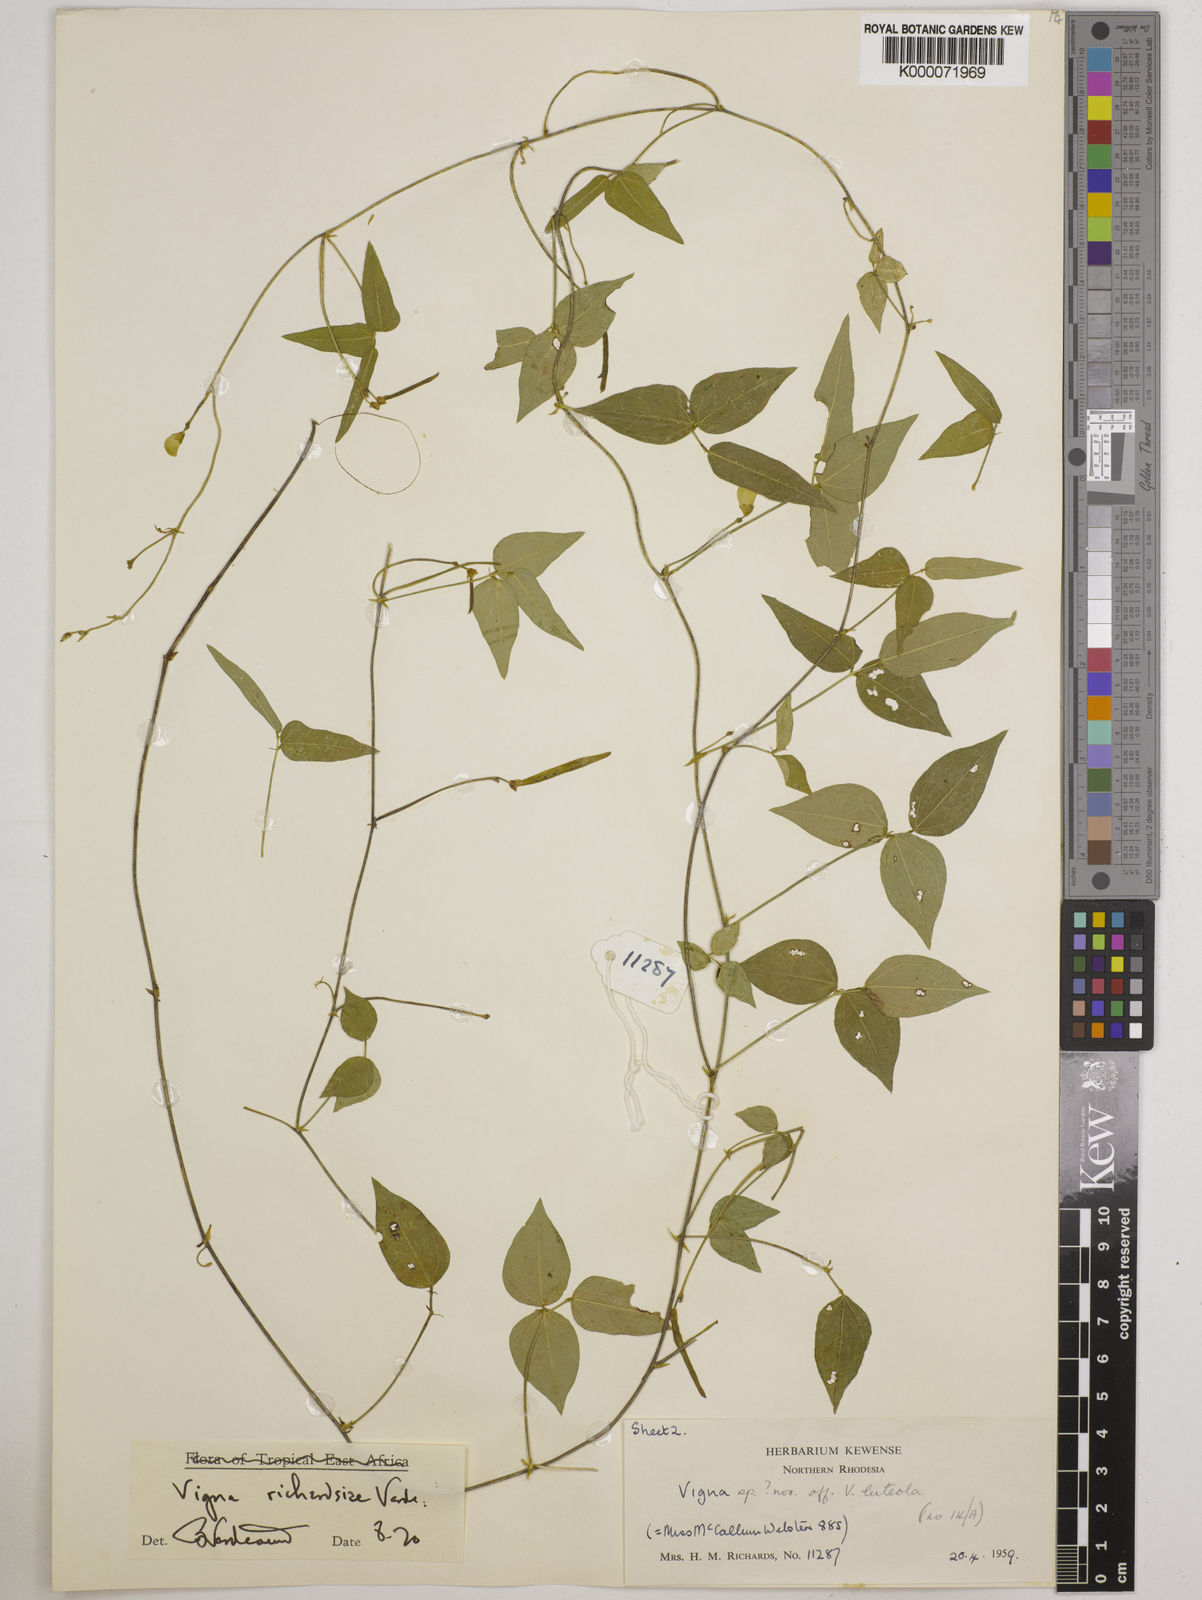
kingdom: Plantae
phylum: Tracheophyta
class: Magnoliopsida
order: Fabales
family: Fabaceae
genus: Vigna
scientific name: Vigna richardsiae
